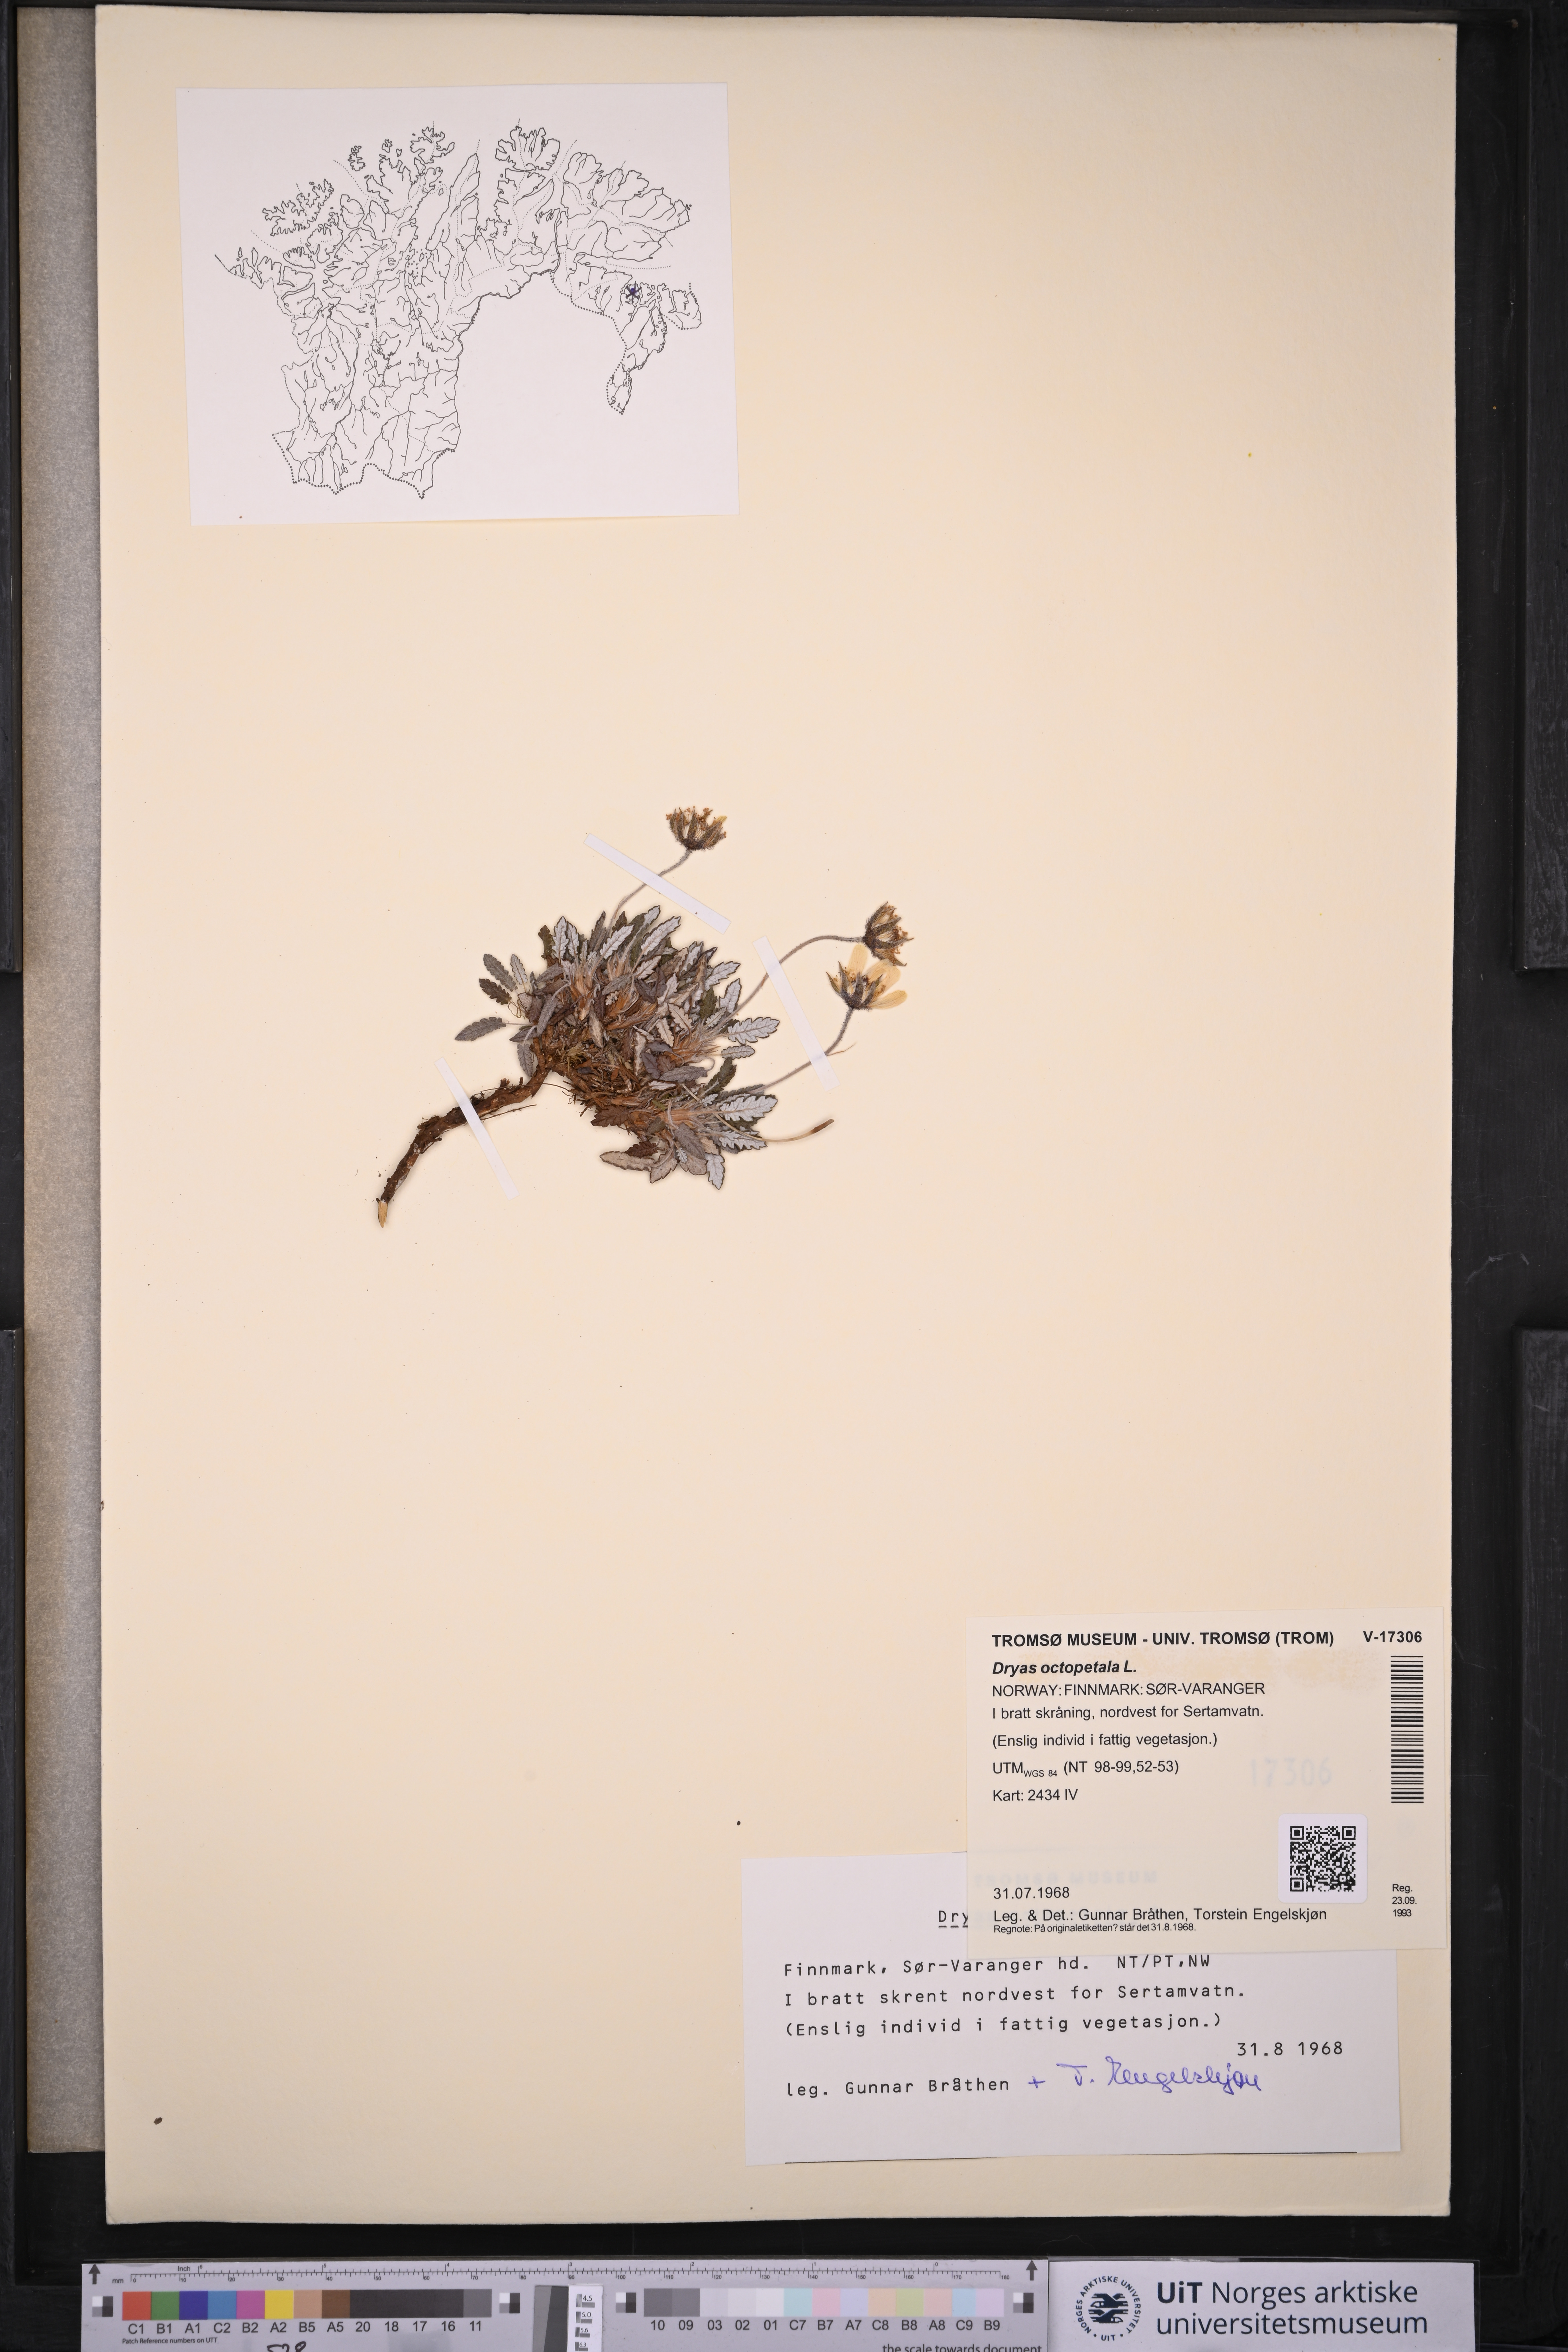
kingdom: Plantae
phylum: Tracheophyta
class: Magnoliopsida
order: Rosales
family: Rosaceae
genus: Dryas
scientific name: Dryas octopetala
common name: Eight-petal mountain-avens
